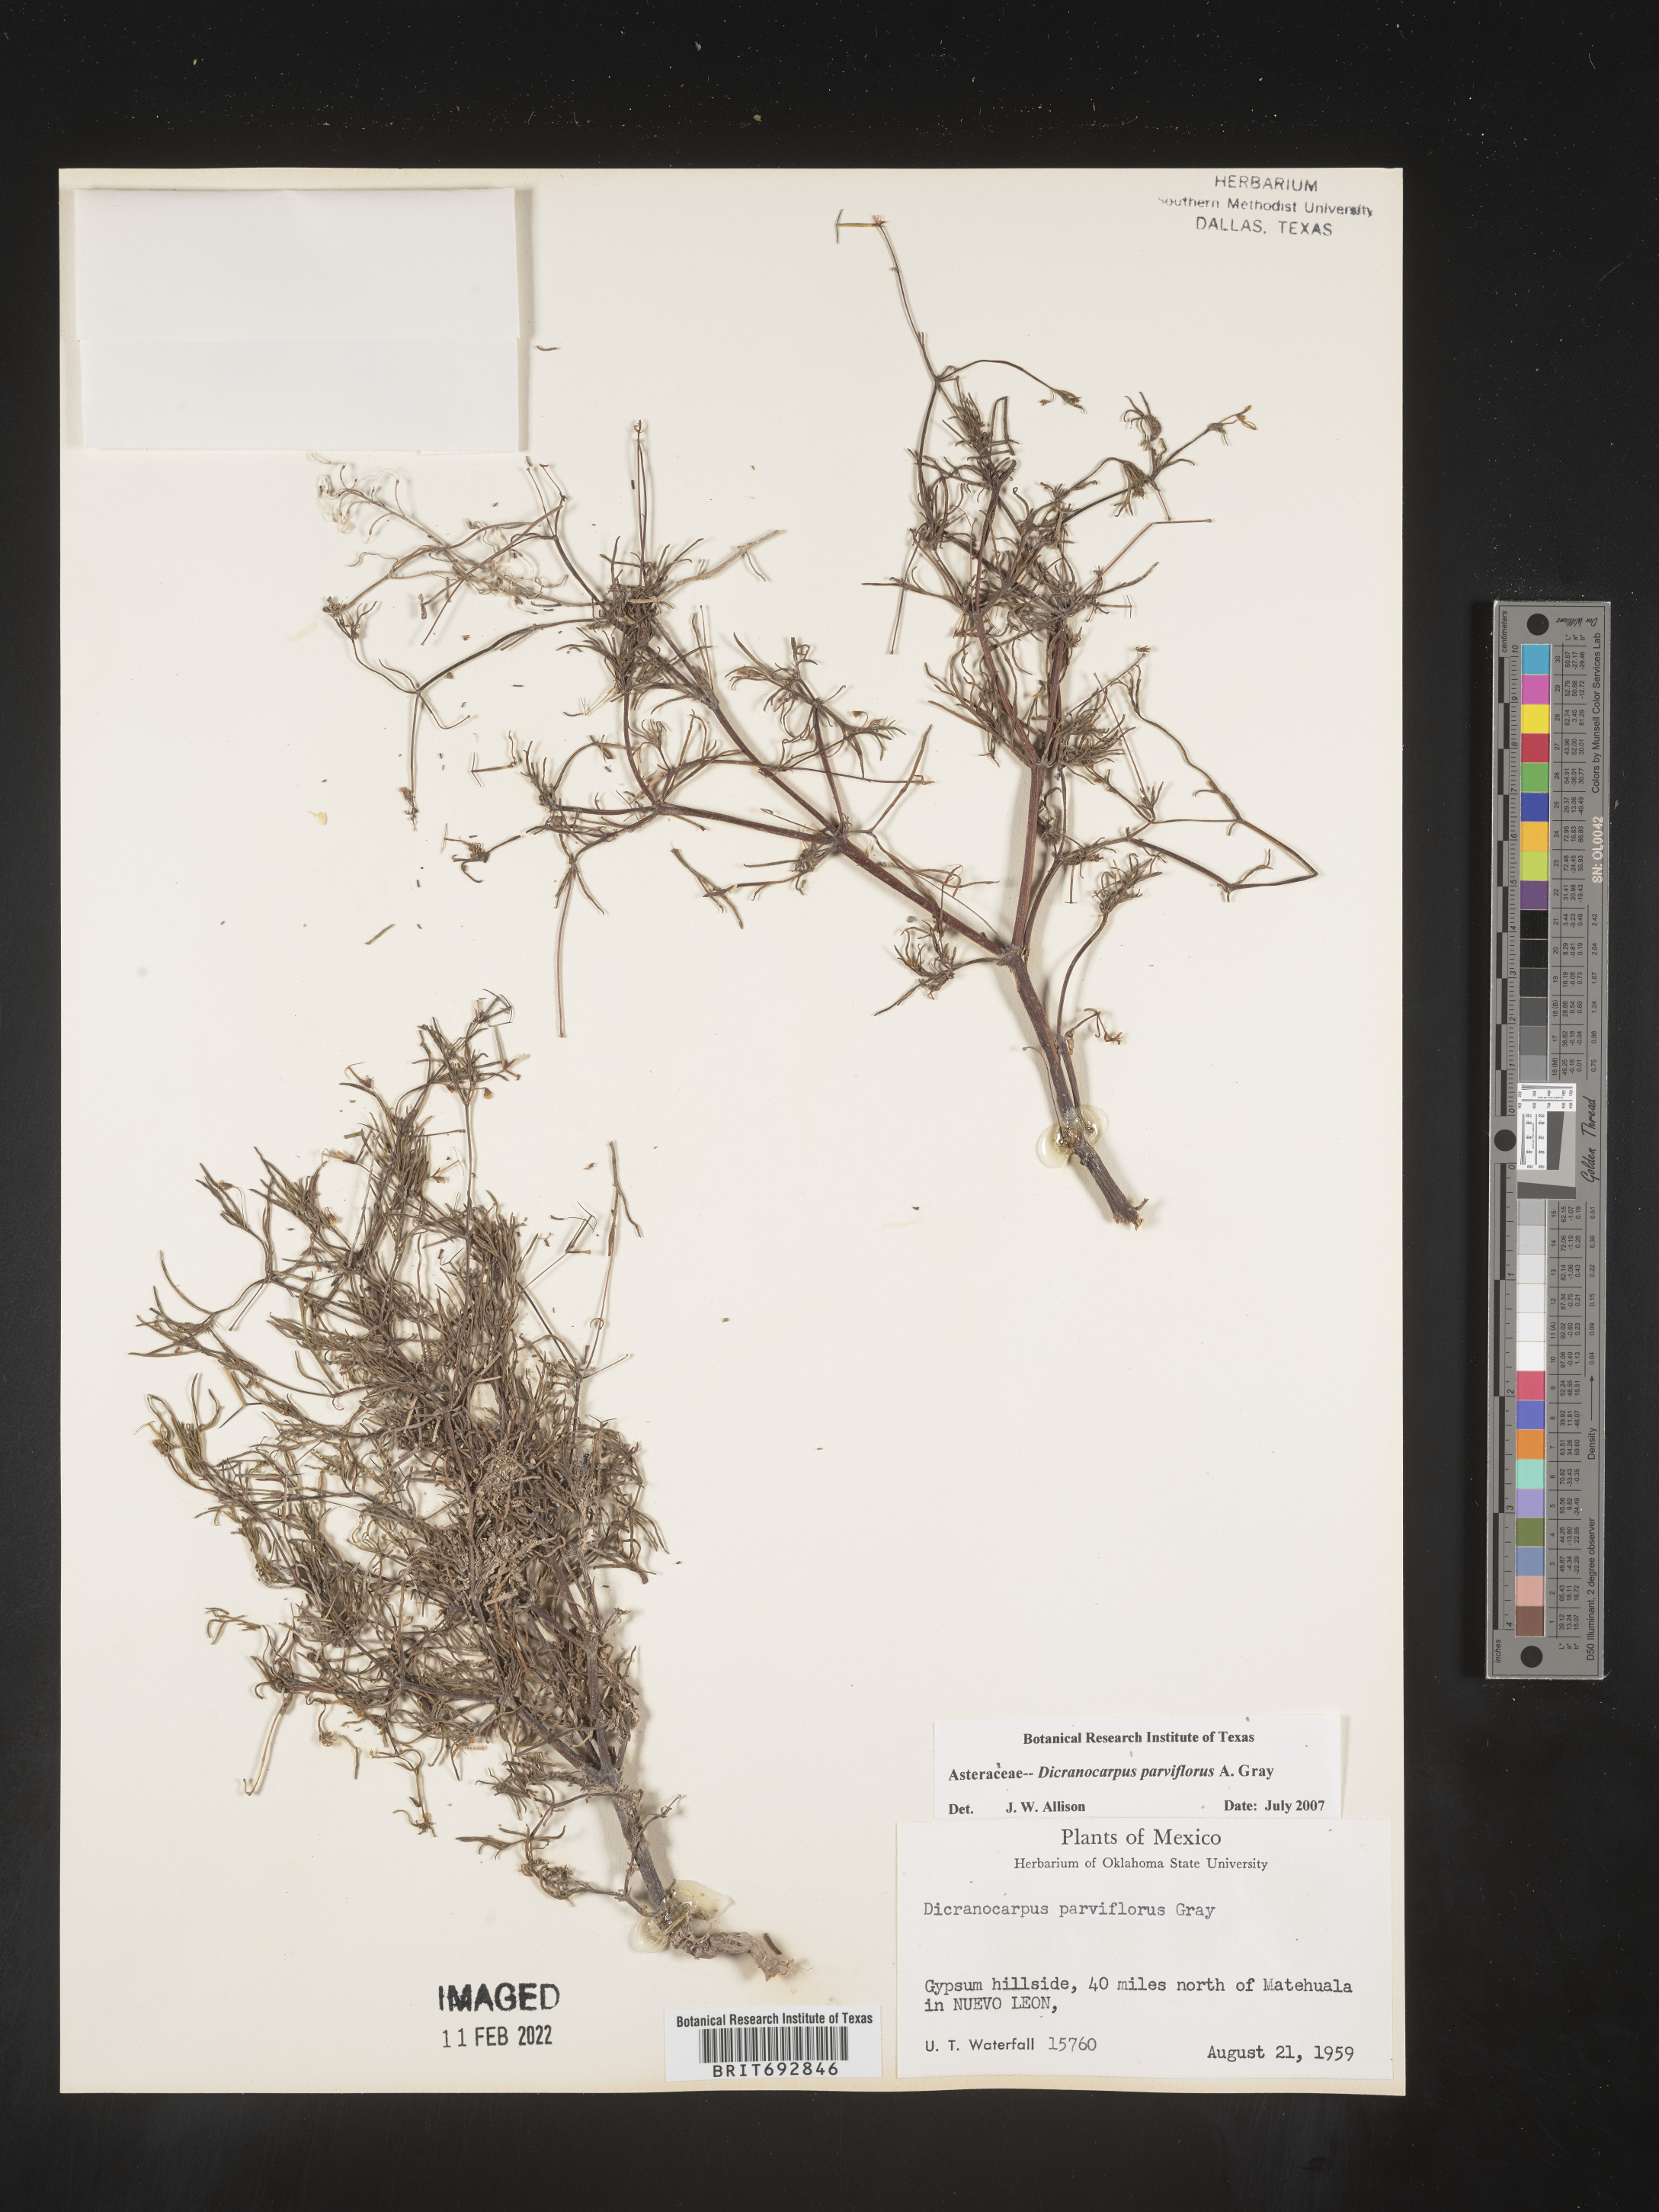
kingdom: Plantae
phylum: Tracheophyta
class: Magnoliopsida
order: Asterales
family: Asteraceae
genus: Dicranocarpus
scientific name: Dicranocarpus
